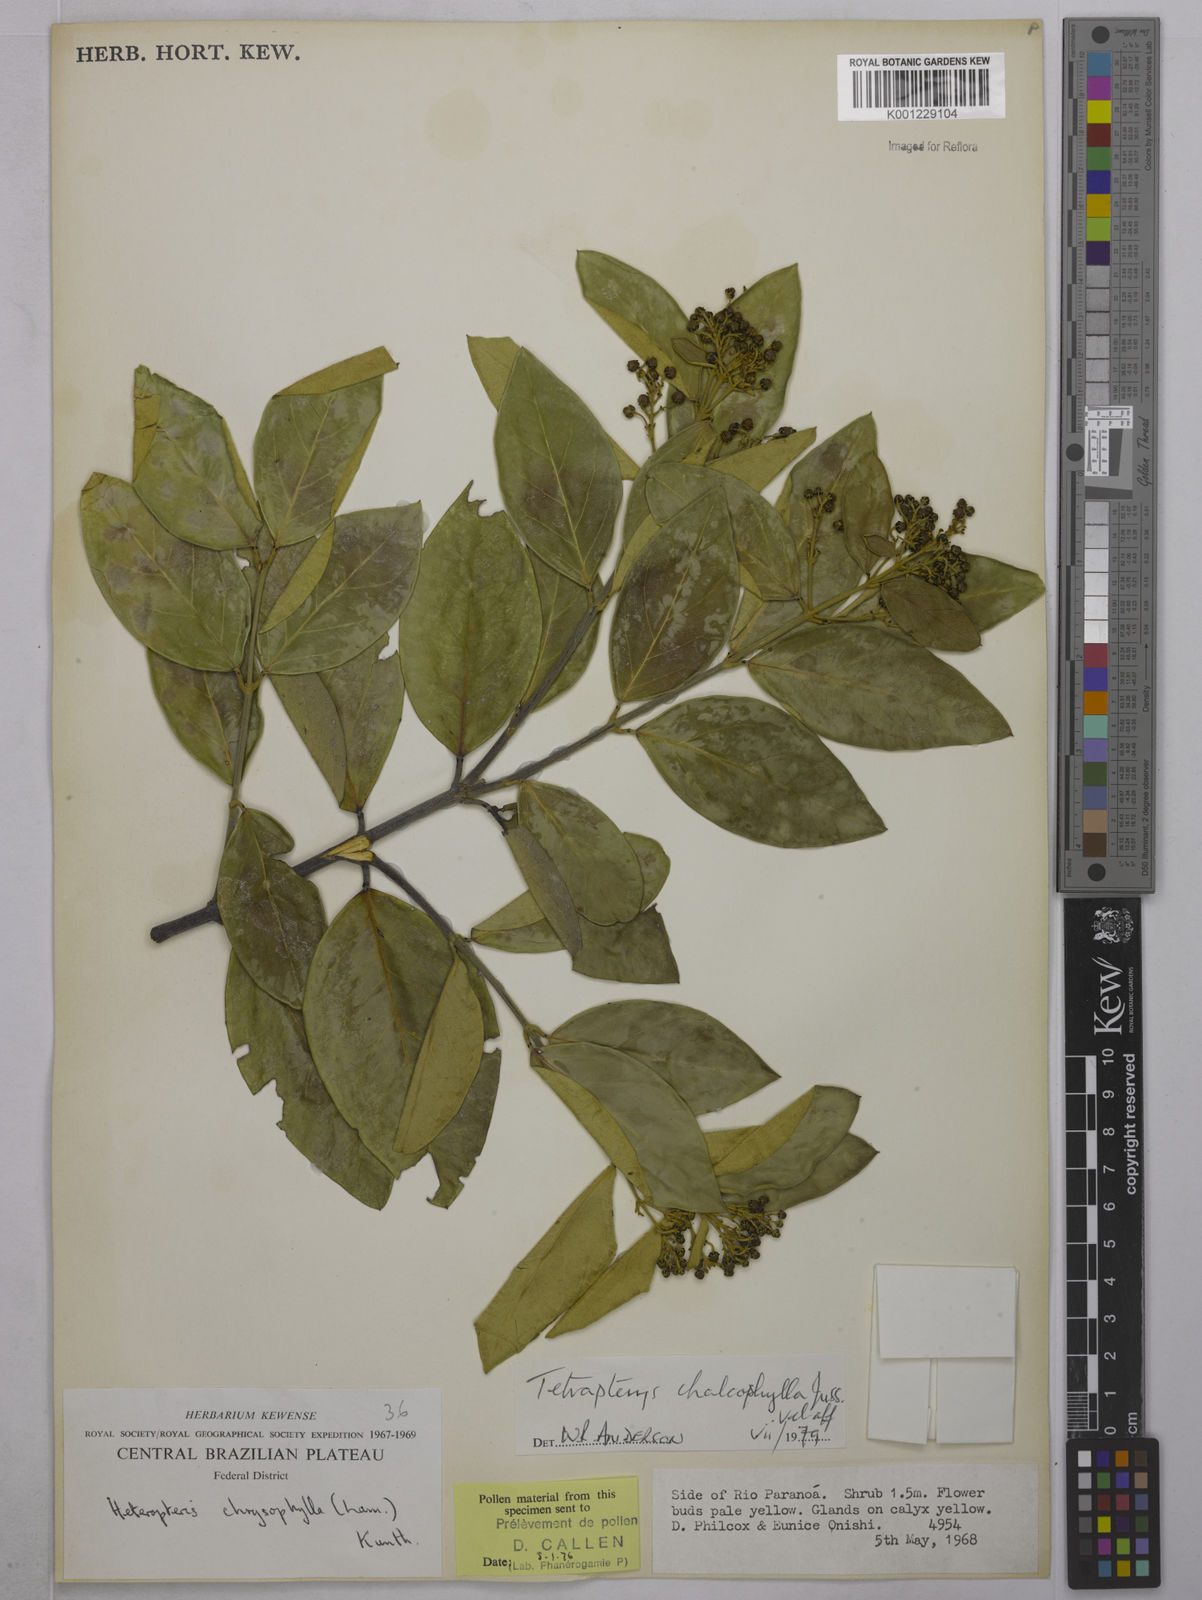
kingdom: Plantae
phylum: Tracheophyta
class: Magnoliopsida
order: Malpighiales
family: Malpighiaceae
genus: Niedenzuella
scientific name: Niedenzuella sericea
